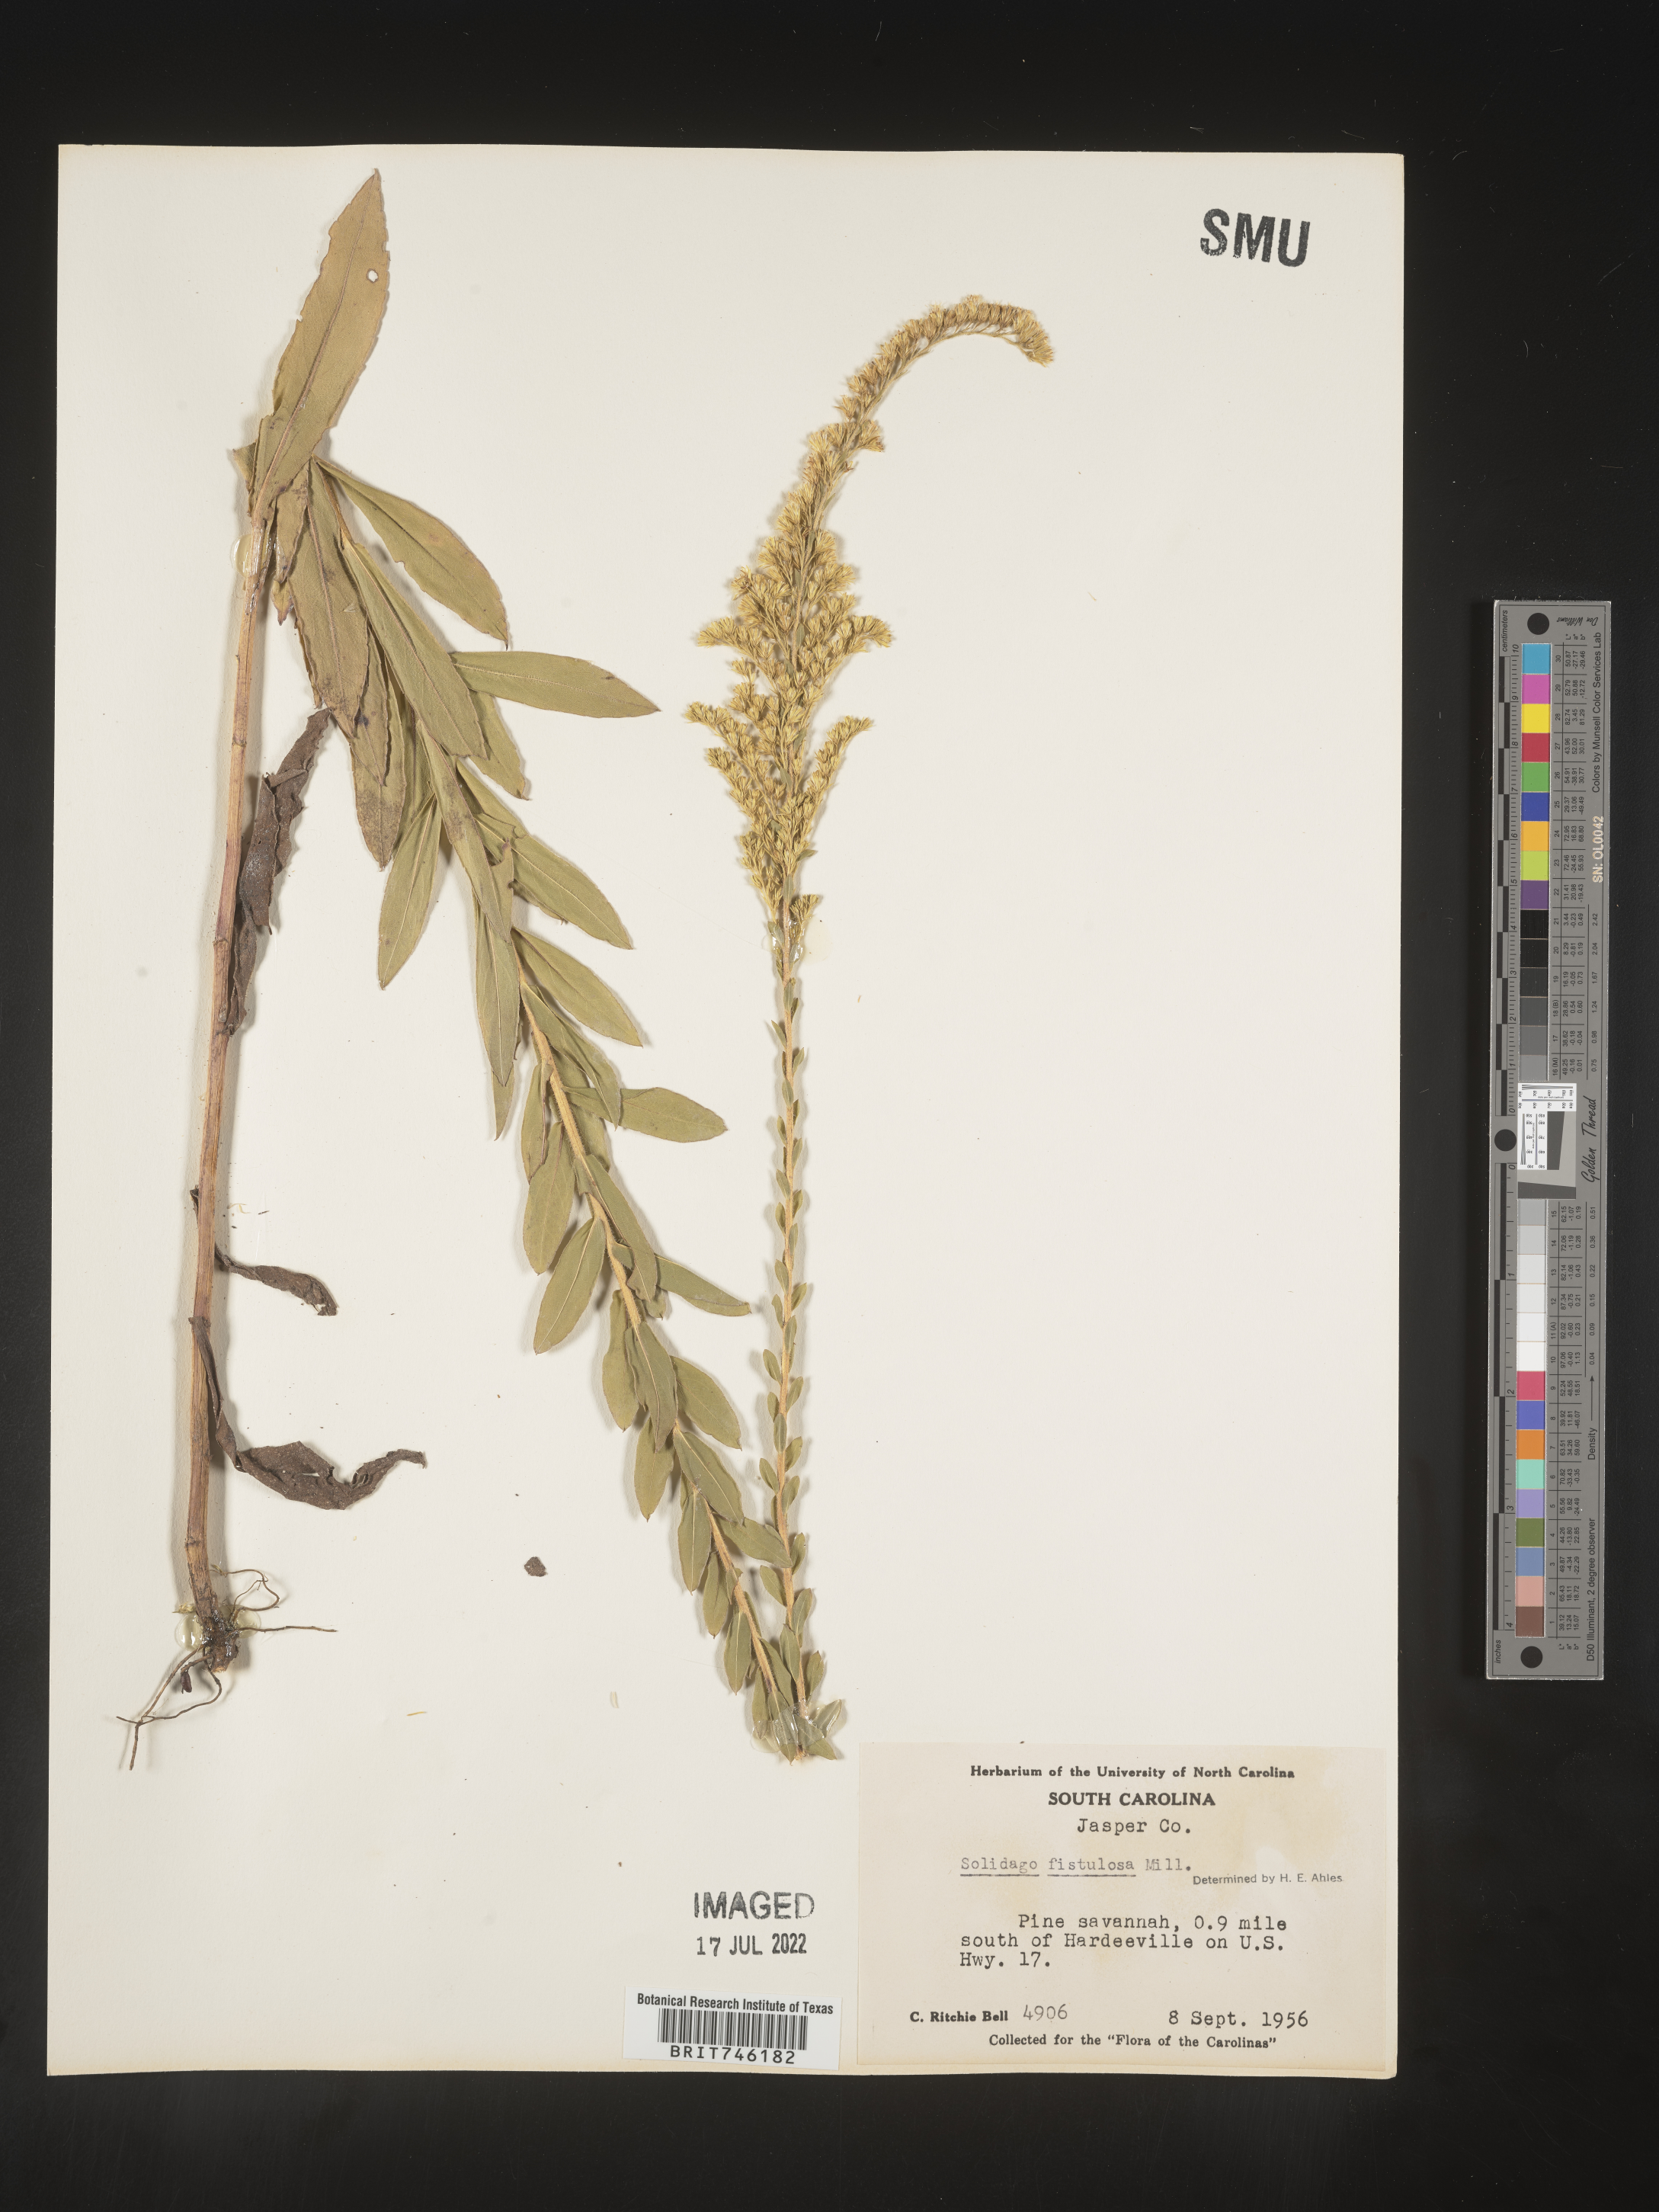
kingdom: Plantae
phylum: Tracheophyta
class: Magnoliopsida
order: Asterales
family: Asteraceae
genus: Solidago
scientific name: Solidago fistulosa
